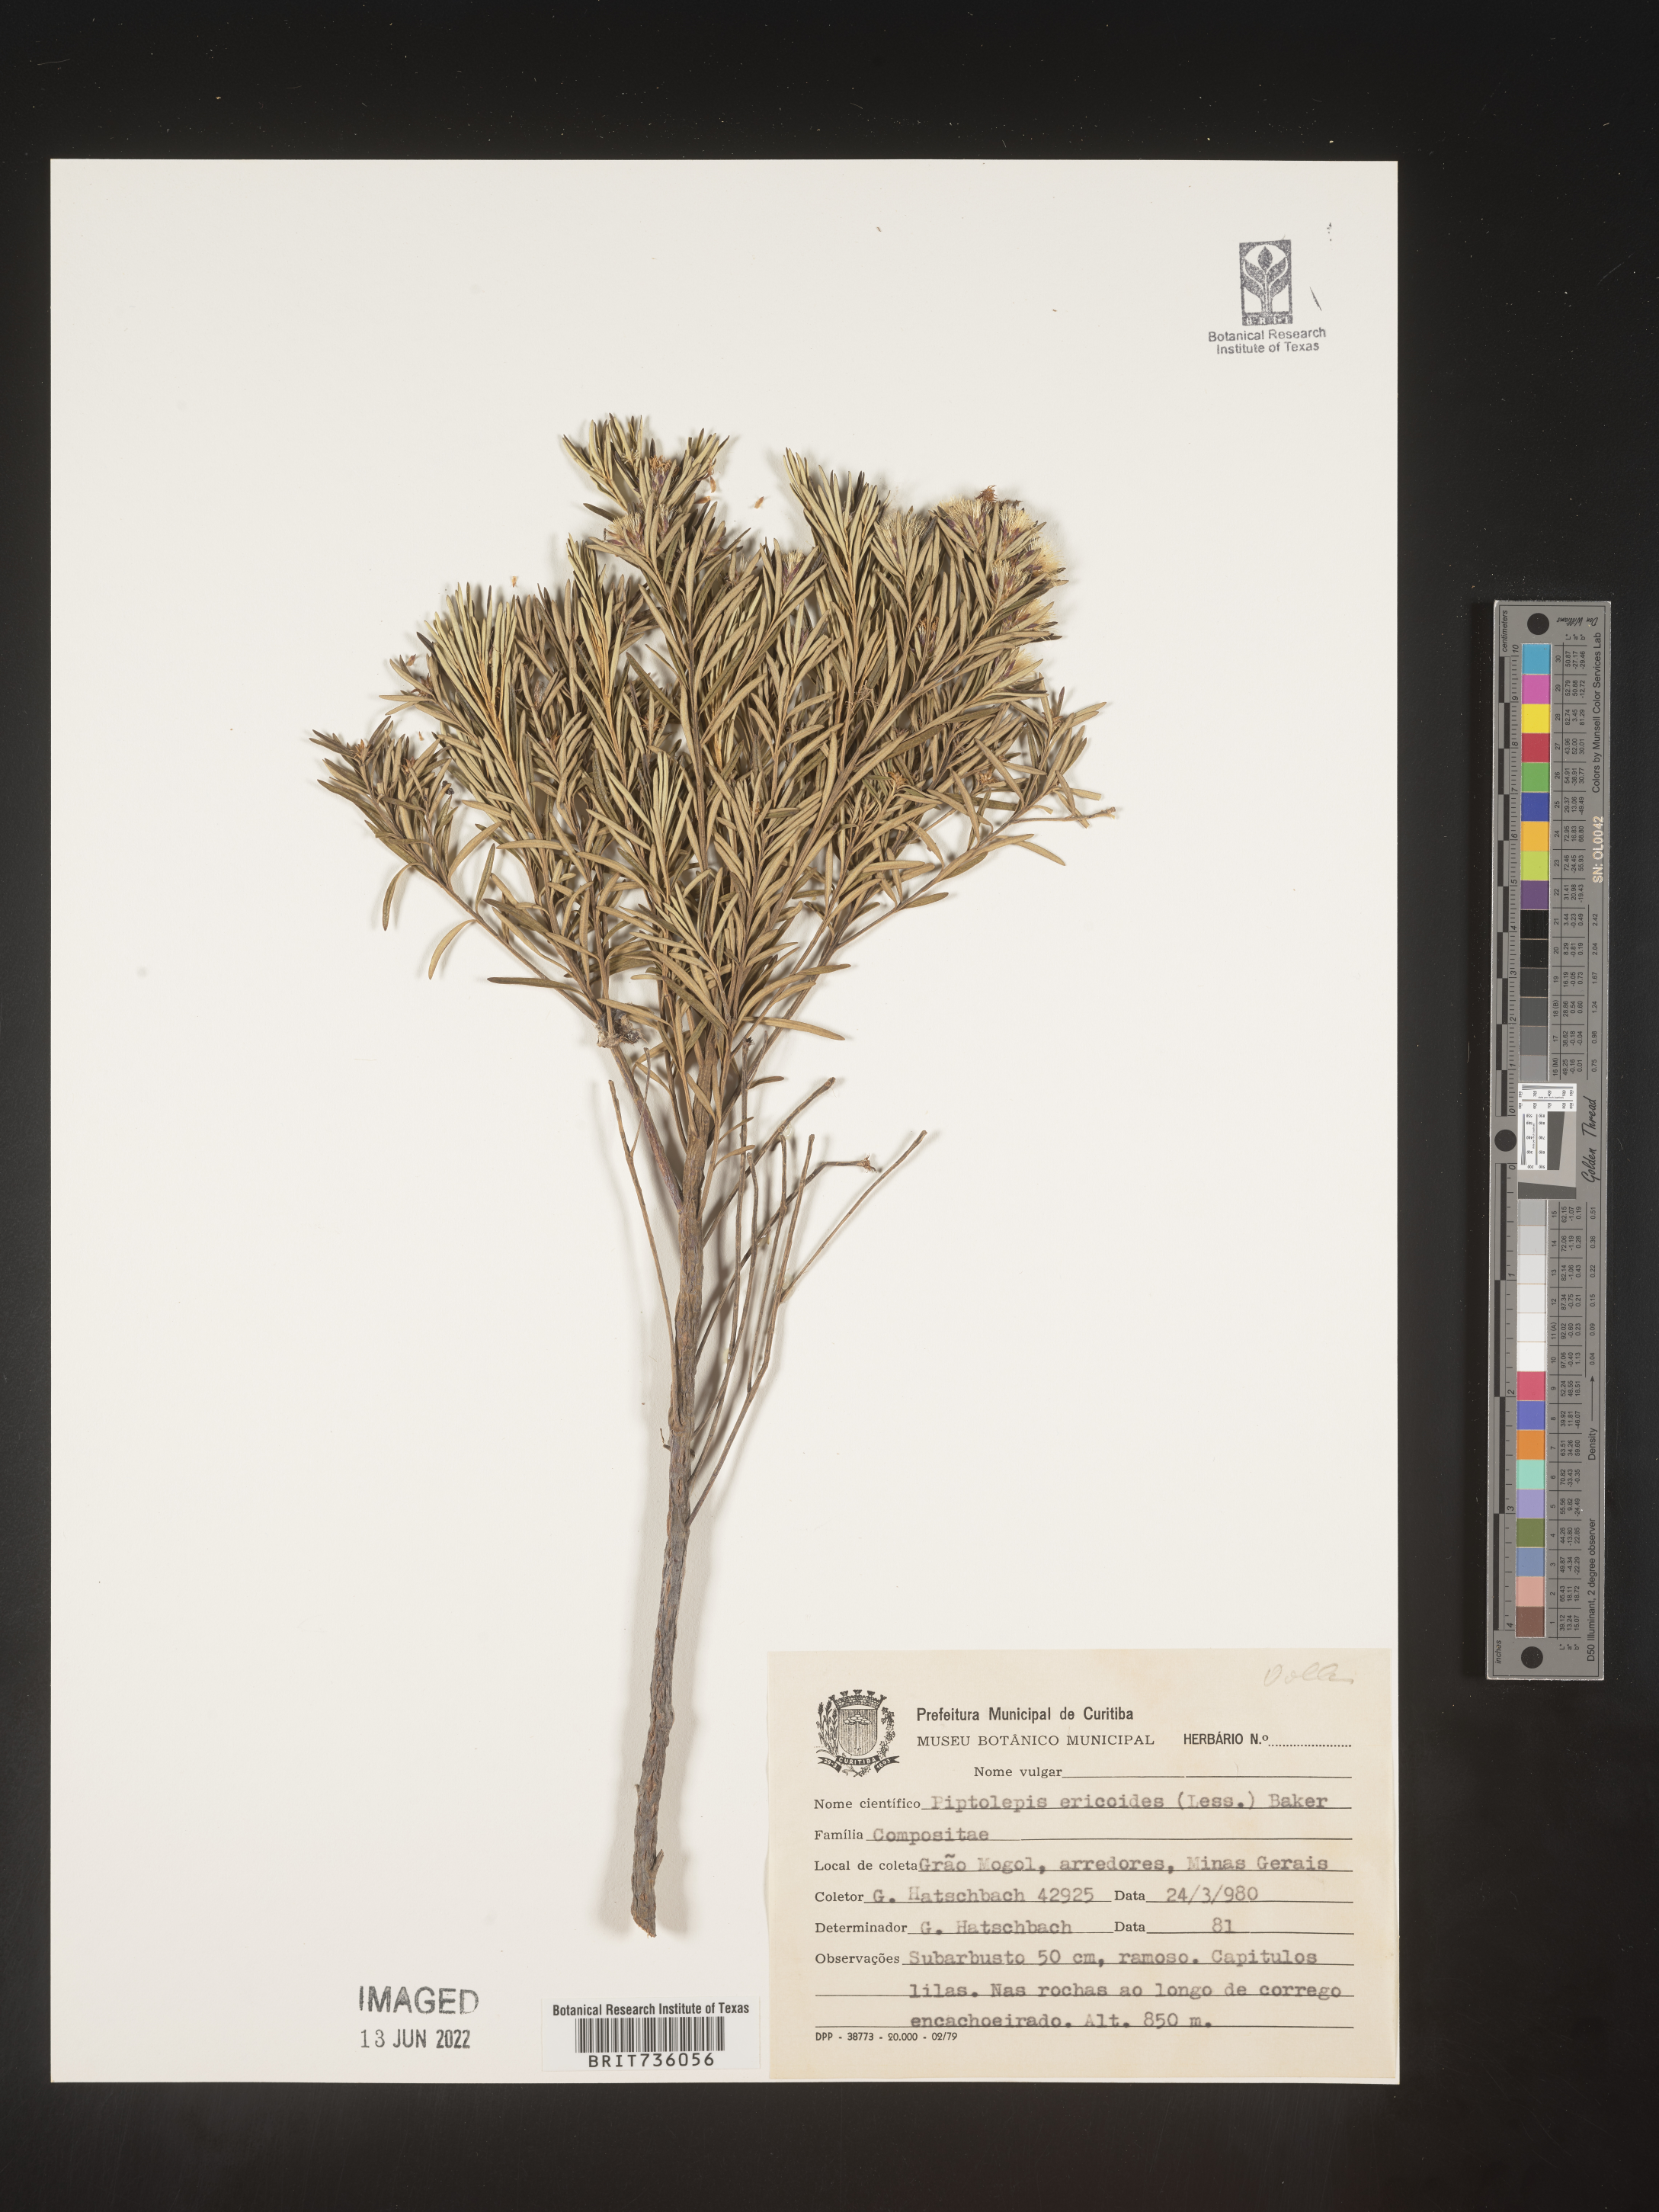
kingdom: Plantae
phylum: Tracheophyta
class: Magnoliopsida
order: Asterales
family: Asteraceae
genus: Piptolepis
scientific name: Piptolepis
